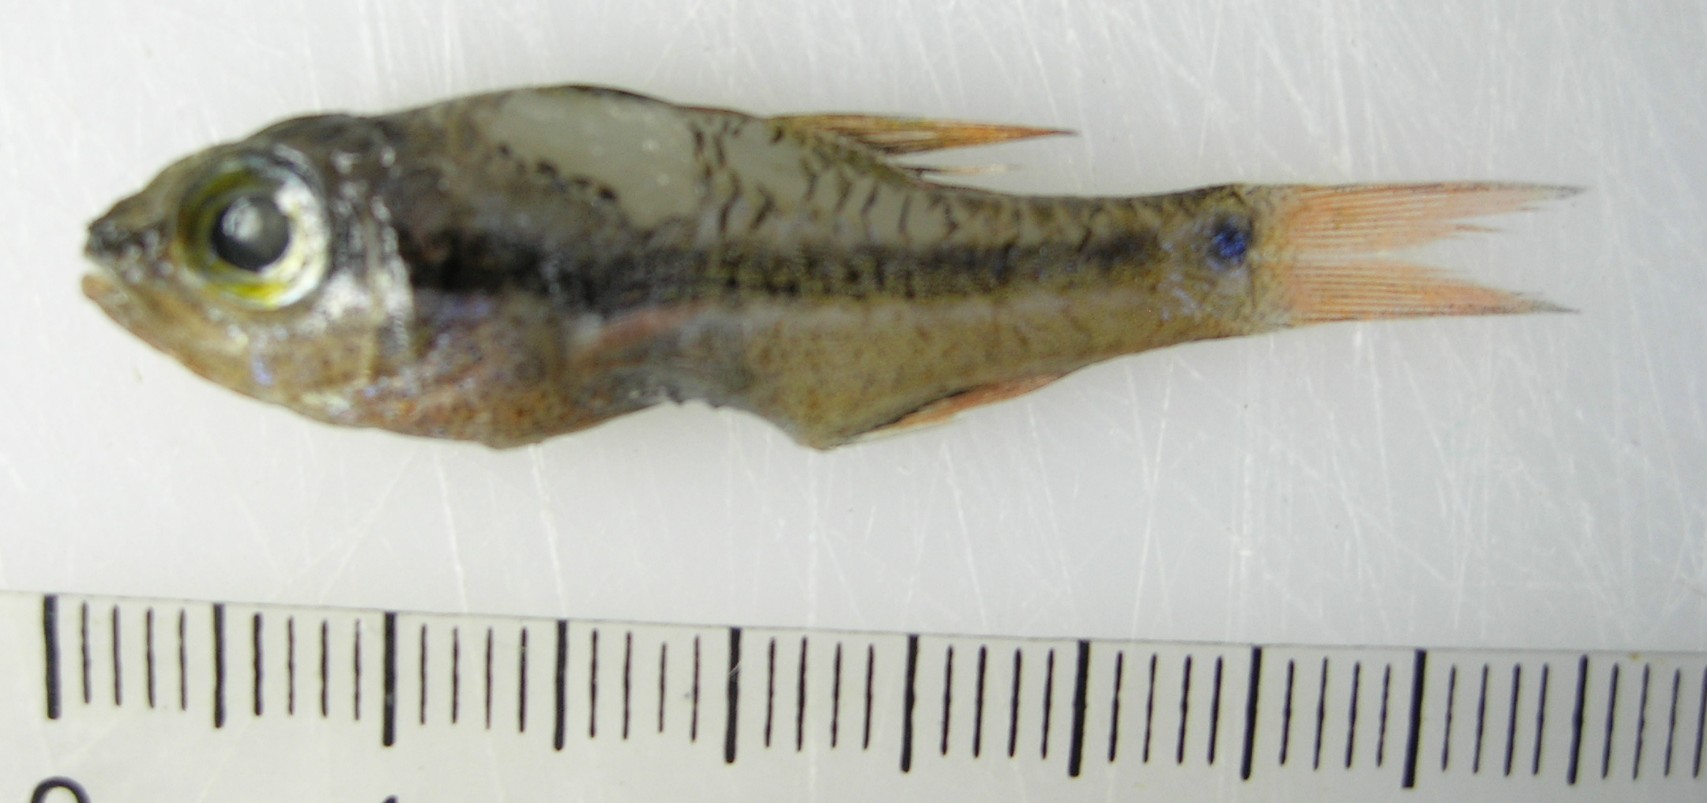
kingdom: Animalia
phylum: Chordata
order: Perciformes
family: Apogonidae
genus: Pristiapogon
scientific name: Pristiapogon kallopterus
